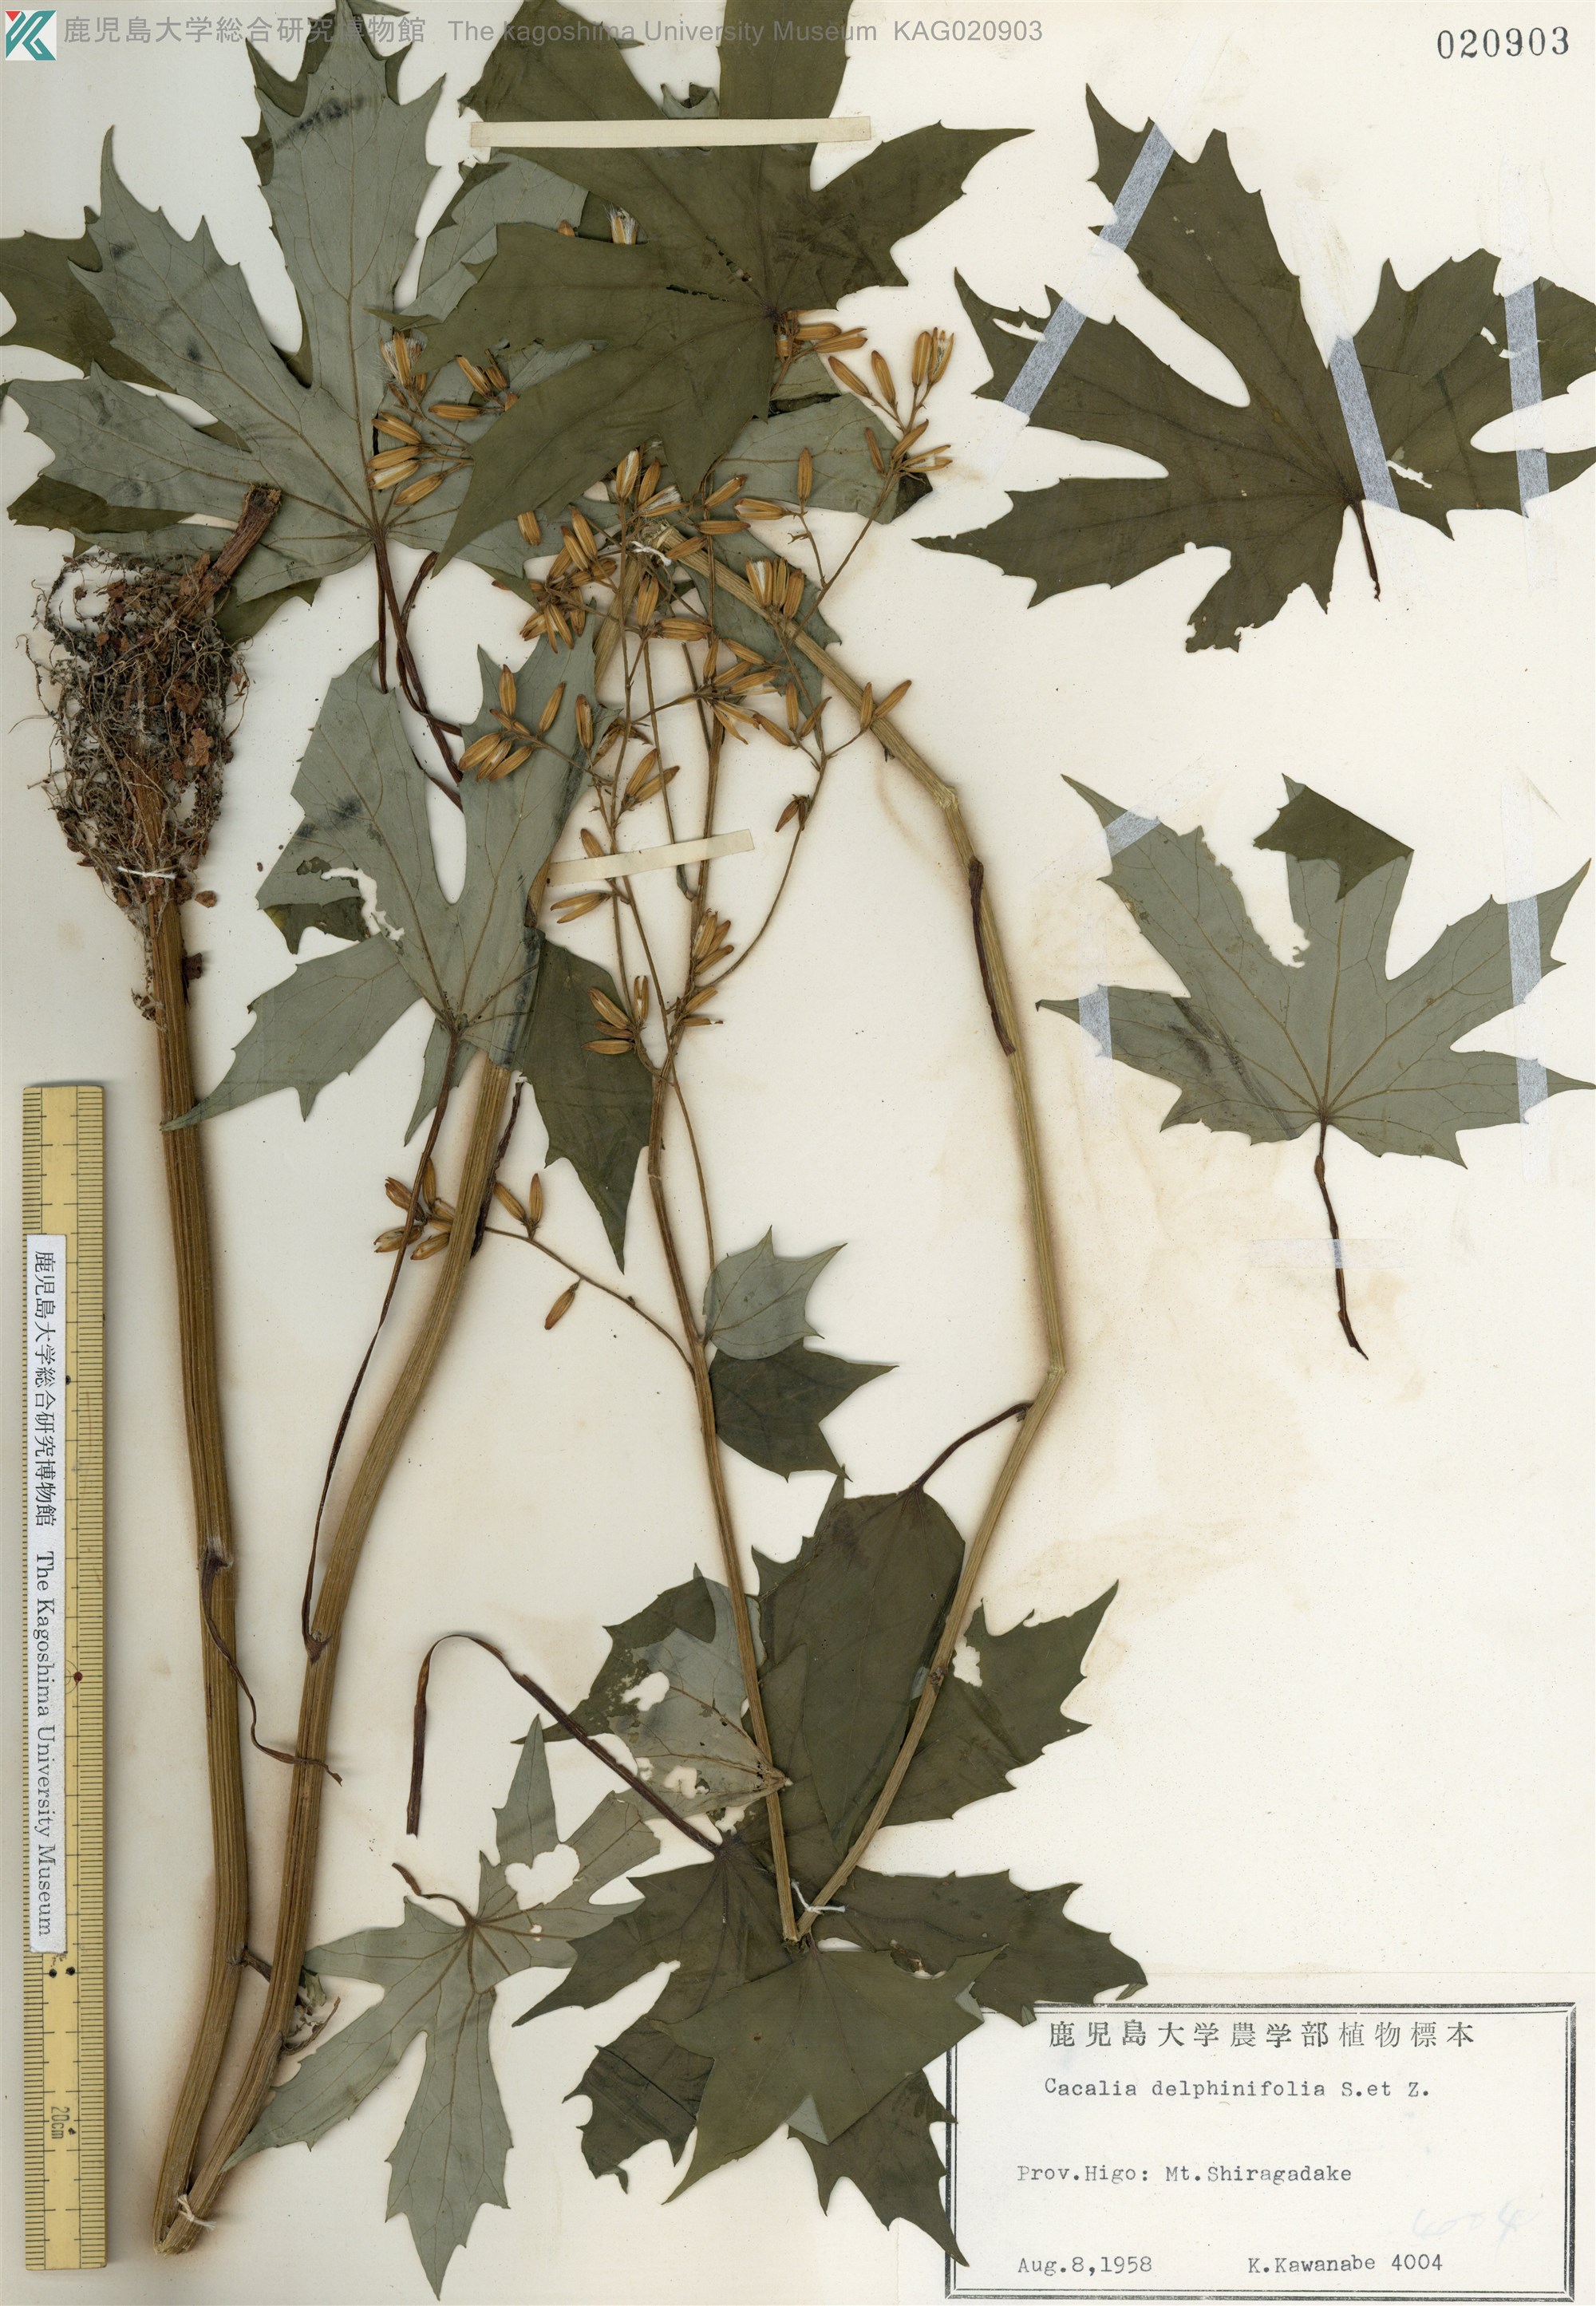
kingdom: Plantae
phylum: Tracheophyta
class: Magnoliopsida
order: Asterales
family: Asteraceae
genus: Japonicalia
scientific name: Japonicalia delphiniifolia
